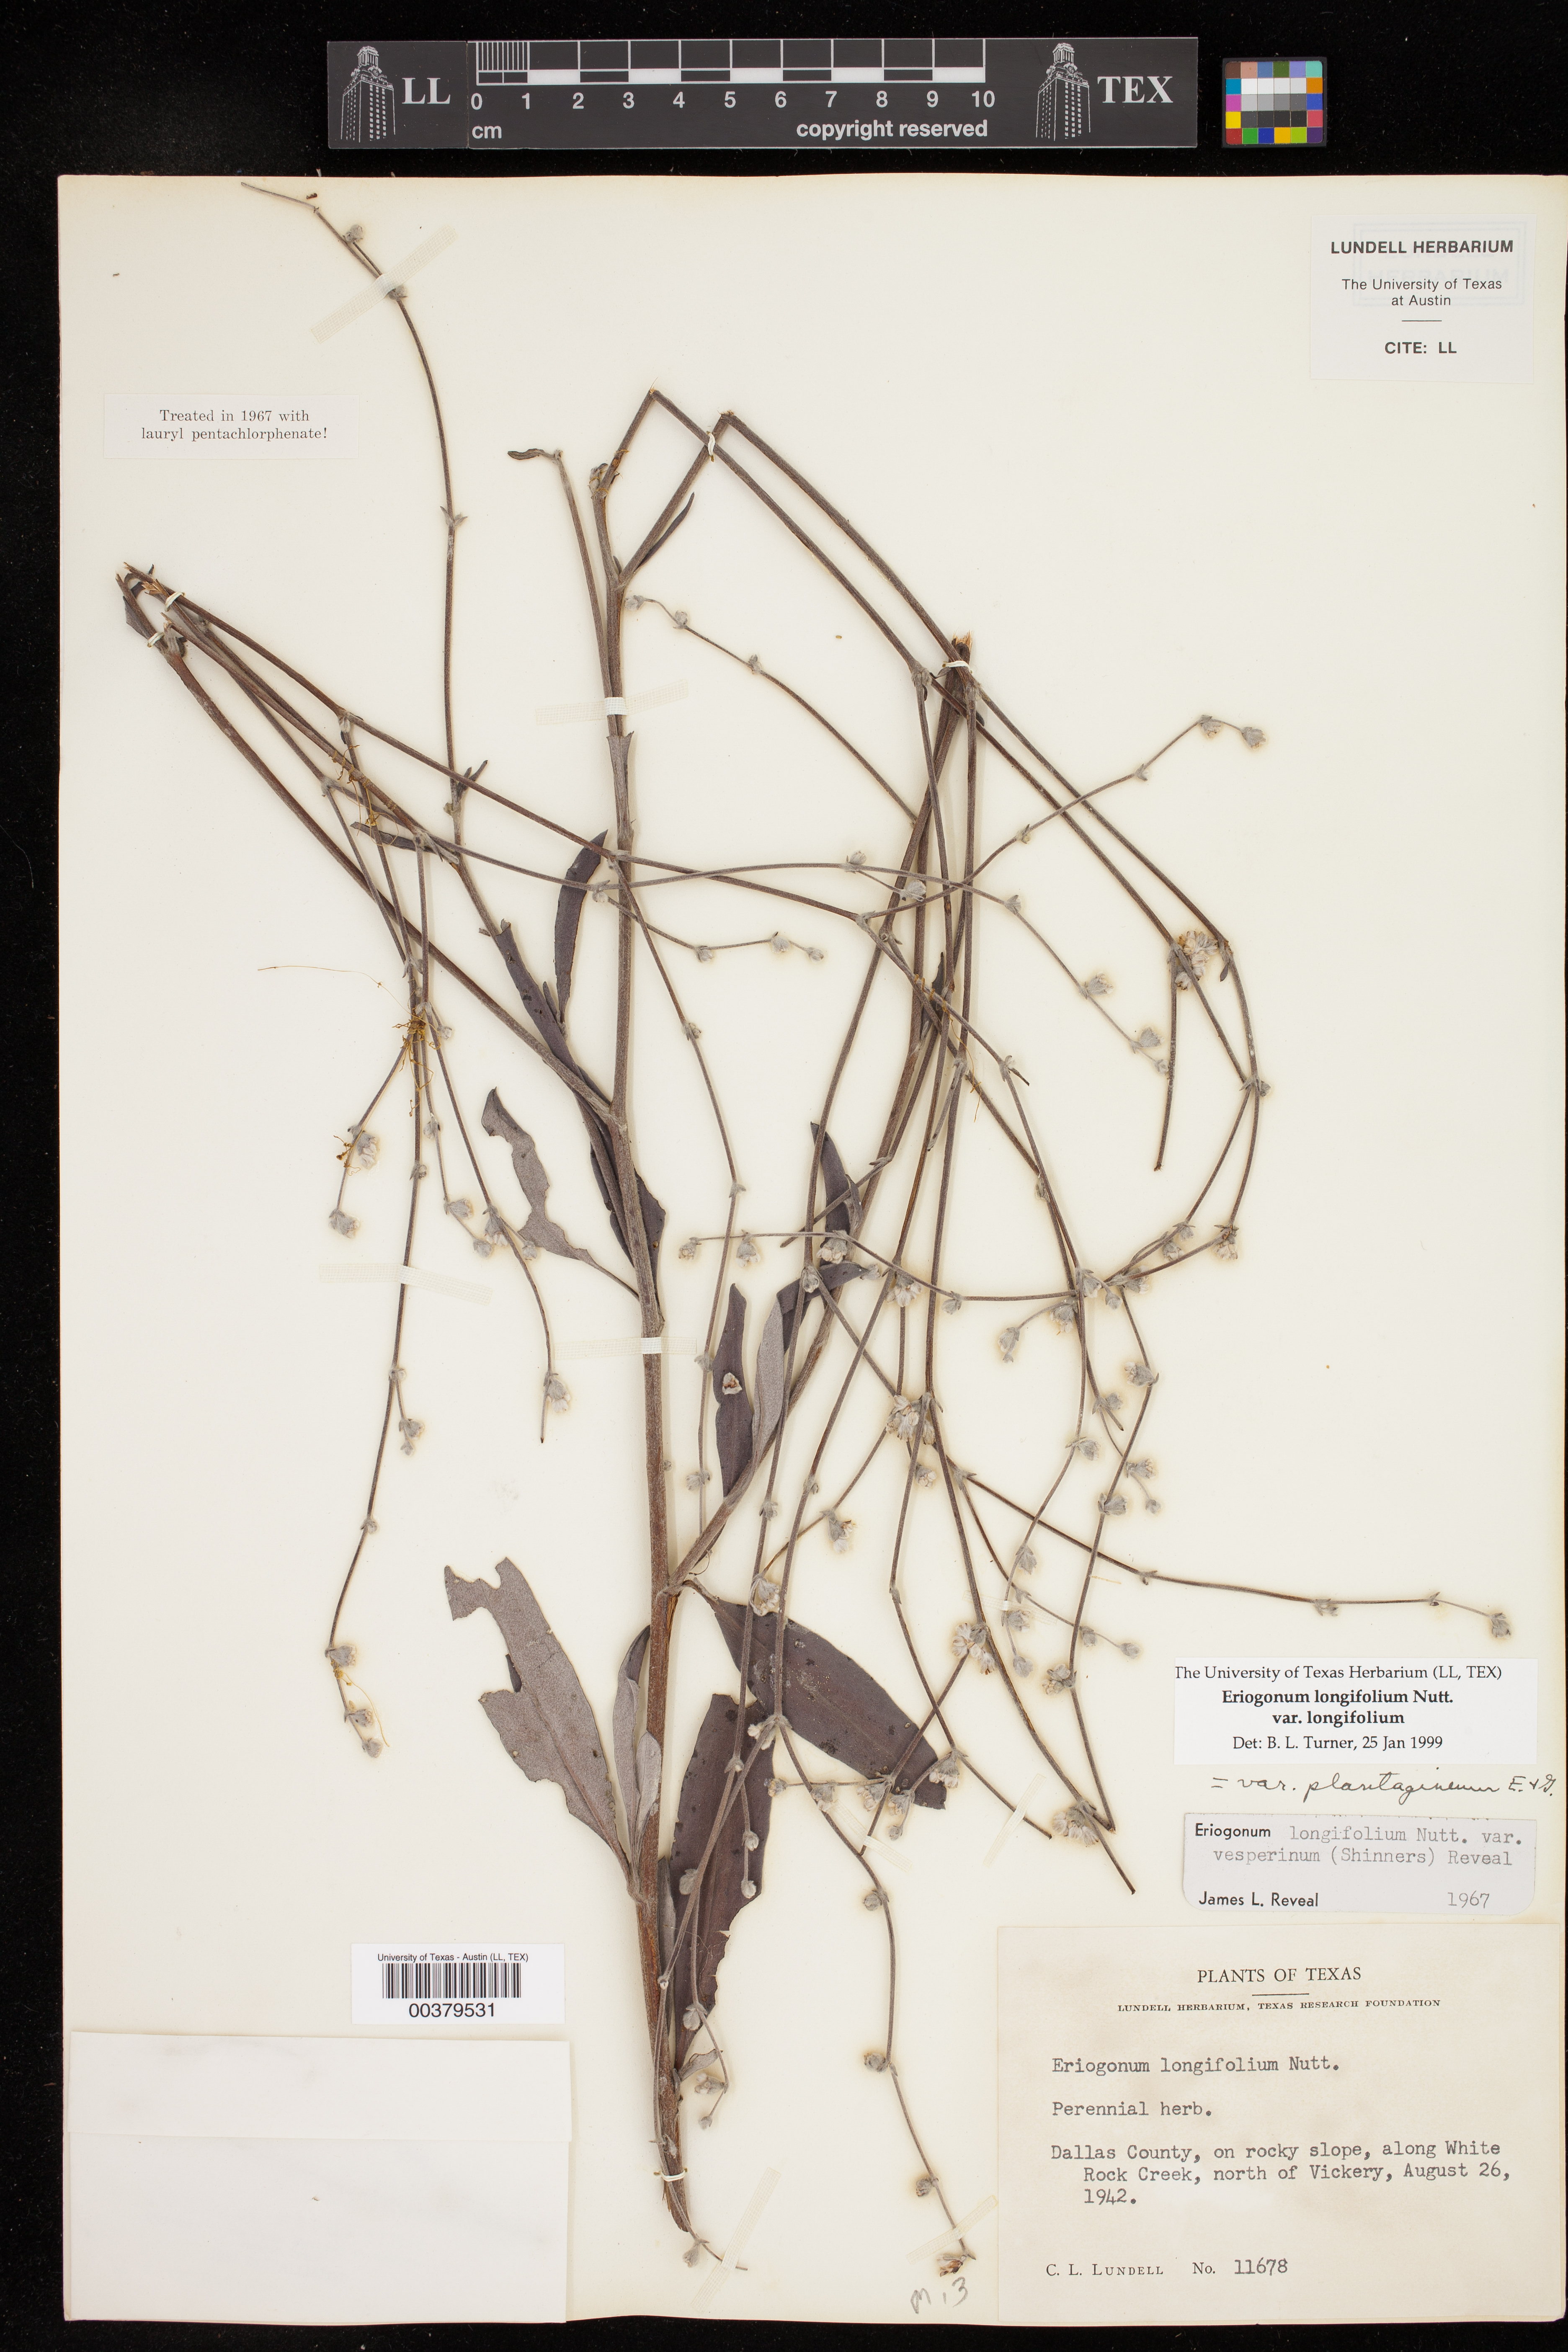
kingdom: Plantae
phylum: Tracheophyta
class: Magnoliopsida
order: Caryophyllales
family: Polygonaceae
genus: Eriogonum
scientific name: Eriogonum longifolium
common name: Longleaf wild buckwheat
